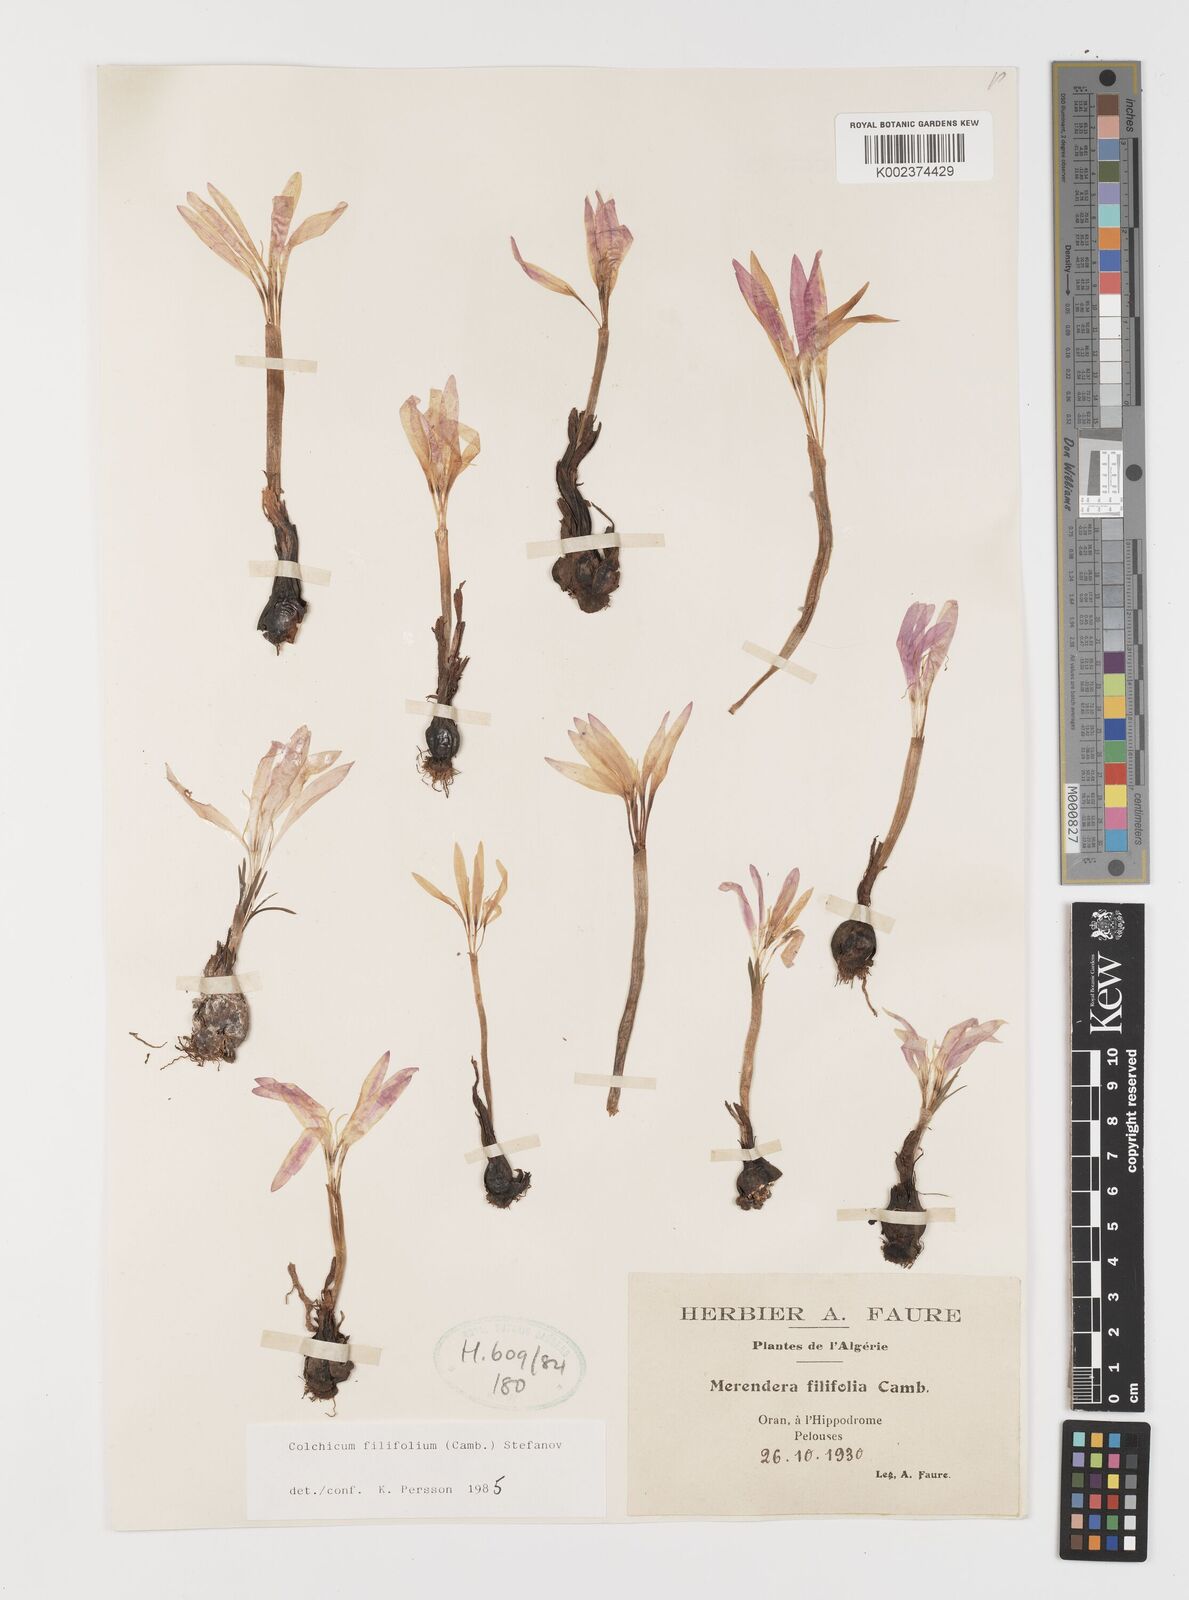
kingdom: Plantae
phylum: Tracheophyta
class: Liliopsida
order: Liliales
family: Colchicaceae
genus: Colchicum
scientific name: Colchicum filifolium
